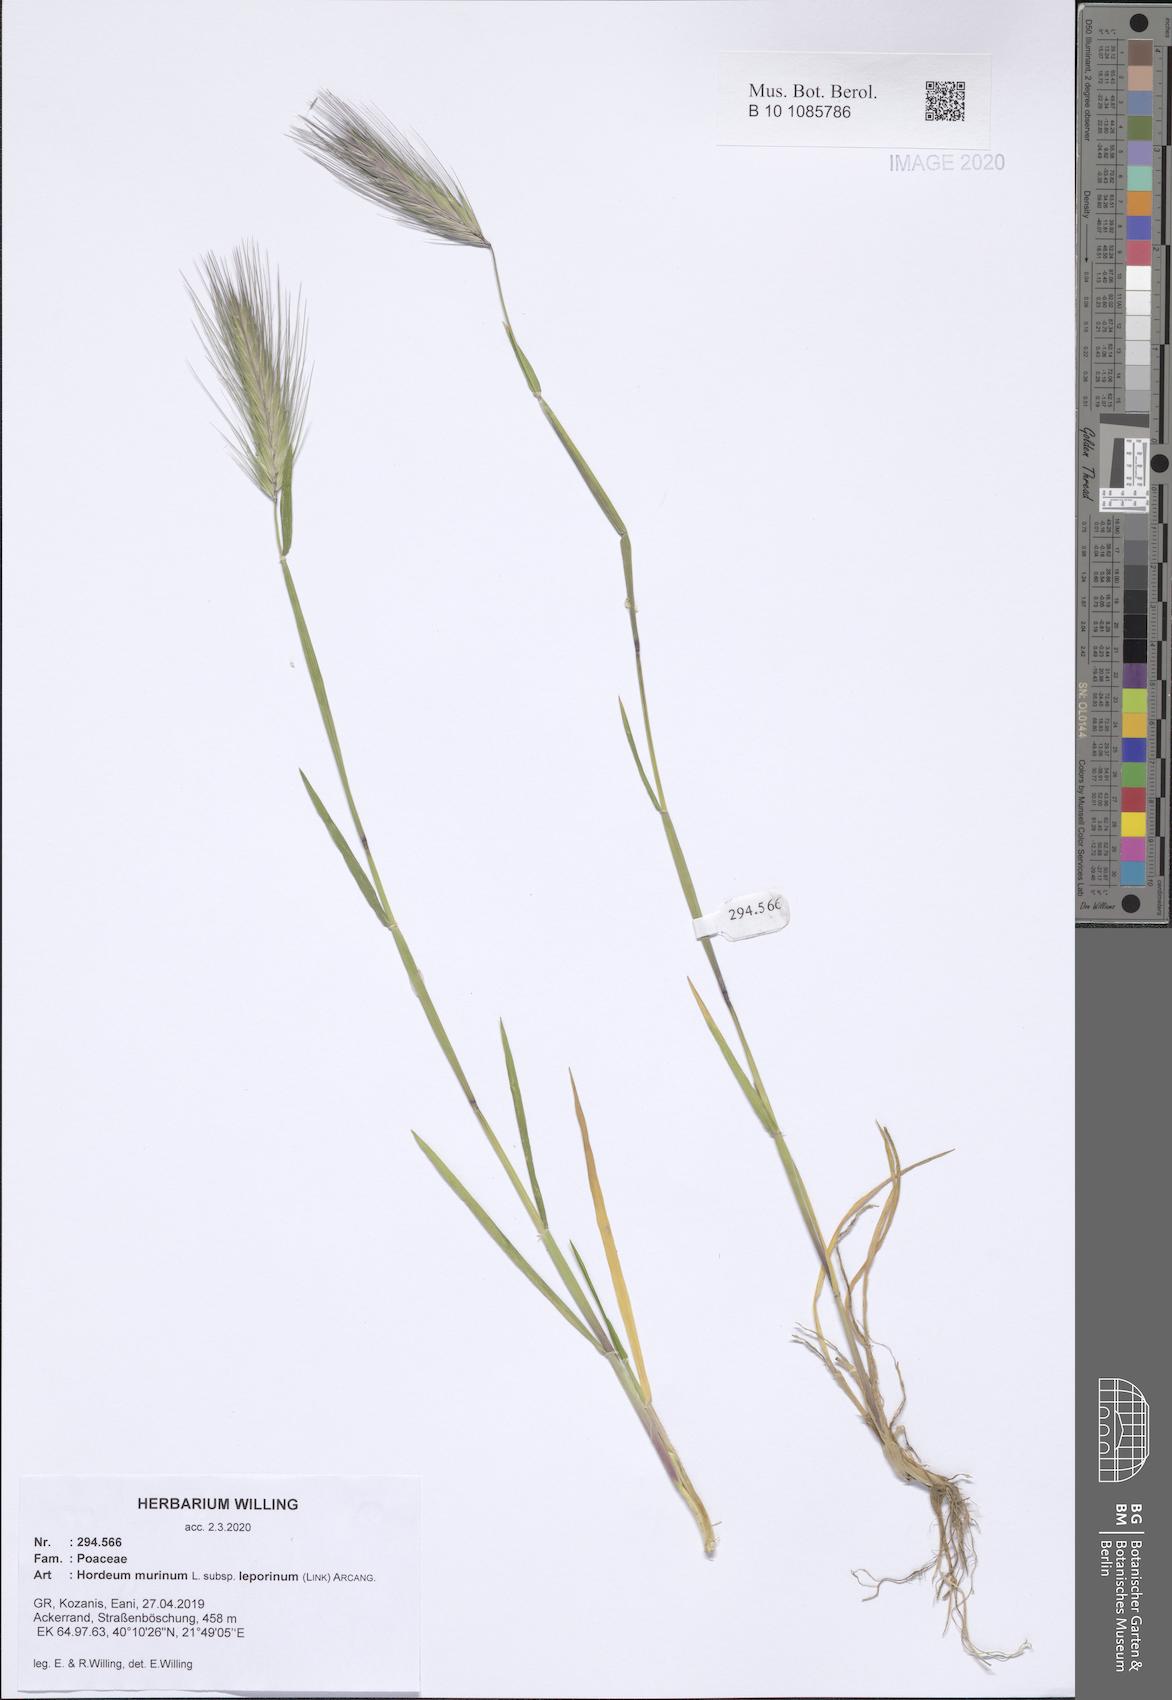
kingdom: Plantae
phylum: Tracheophyta
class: Liliopsida
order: Poales
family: Poaceae
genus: Hordeum
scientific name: Hordeum murinum
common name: Wall barley
